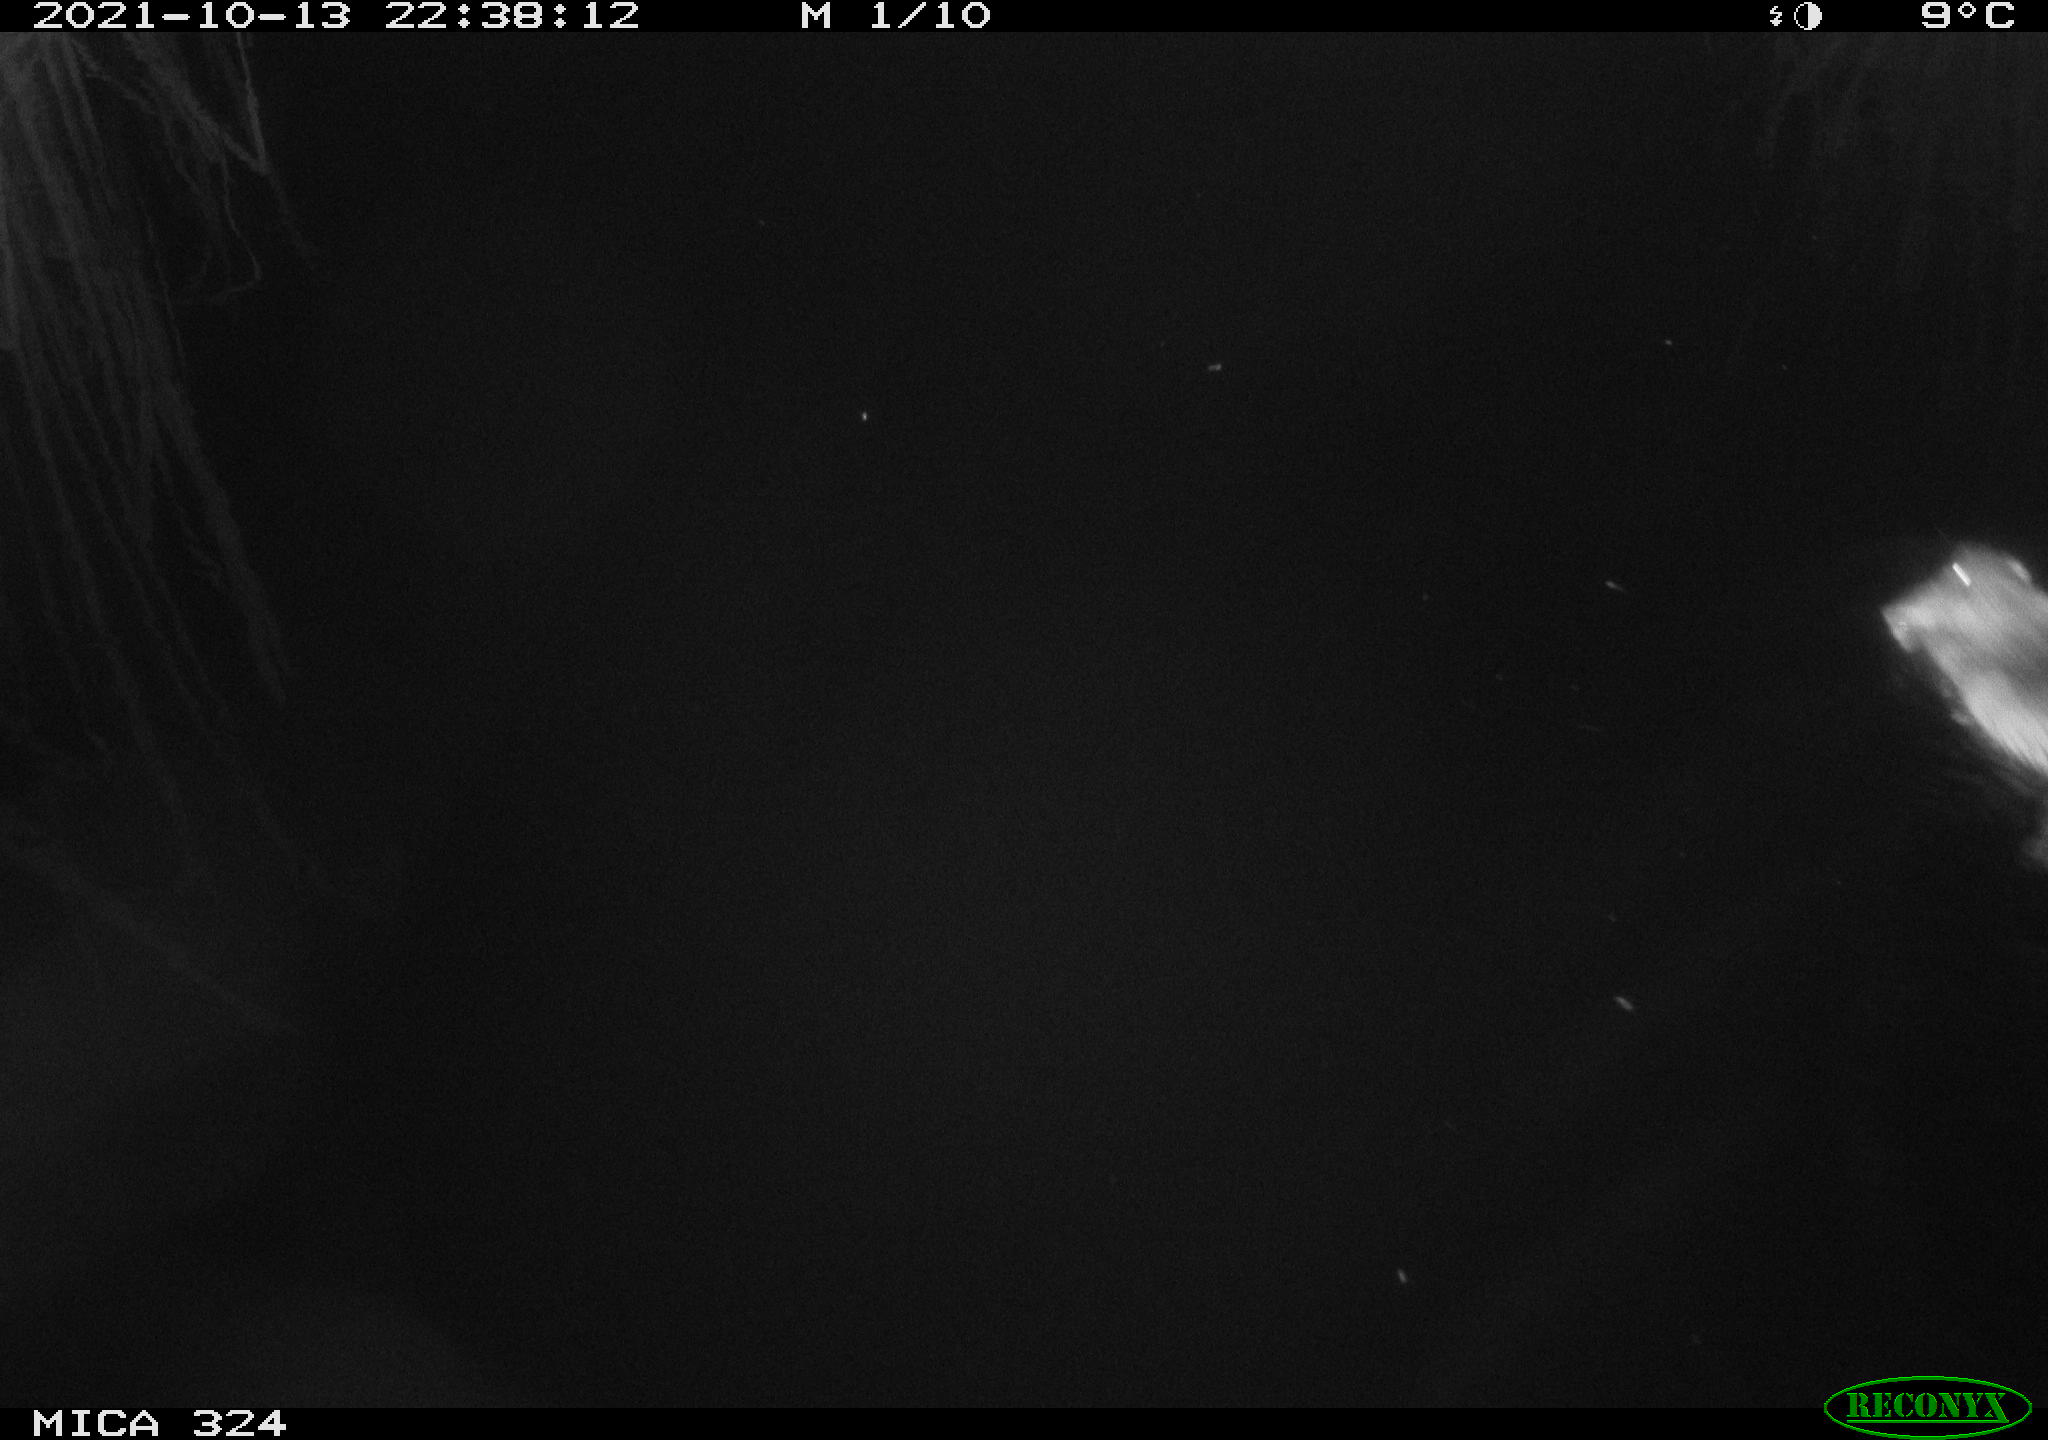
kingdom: Animalia
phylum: Chordata
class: Mammalia
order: Rodentia
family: Cricetidae
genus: Ondatra
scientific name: Ondatra zibethicus
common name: Muskrat
